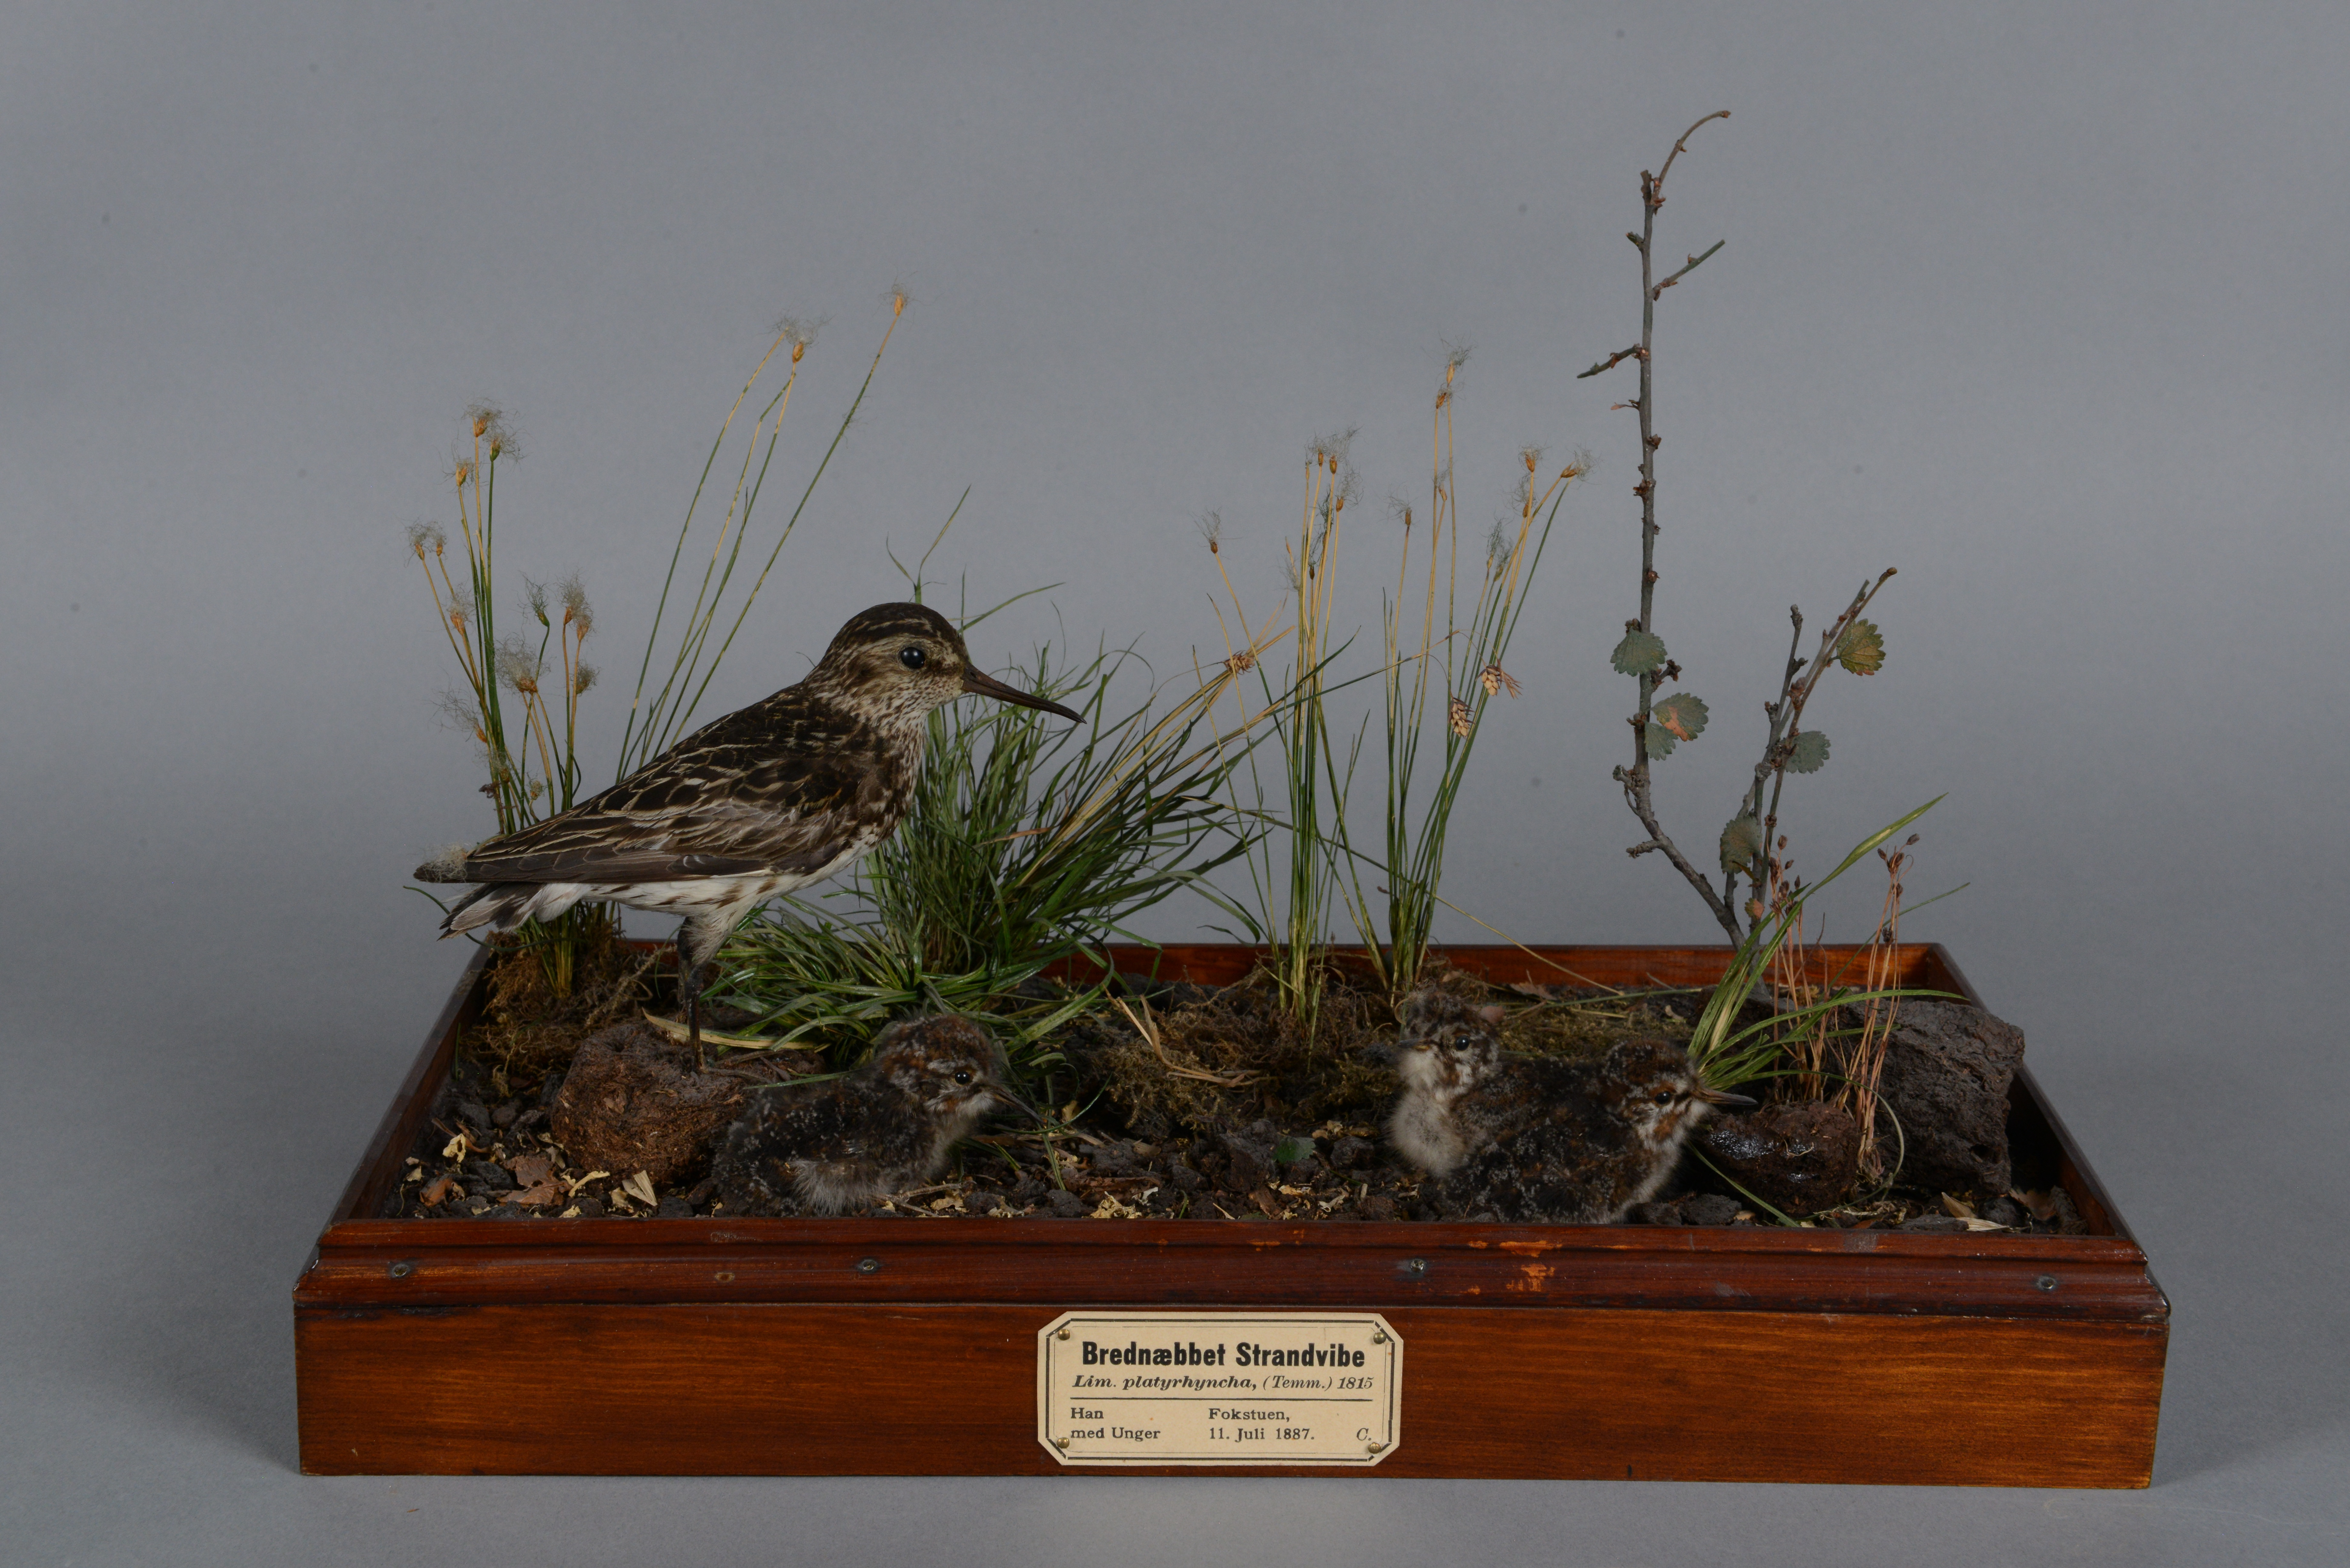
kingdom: Animalia
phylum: Chordata
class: Aves
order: Charadriiformes
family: Scolopacidae
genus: Calidris
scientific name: Calidris falcinellus
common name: Broad-billed sandpiper
